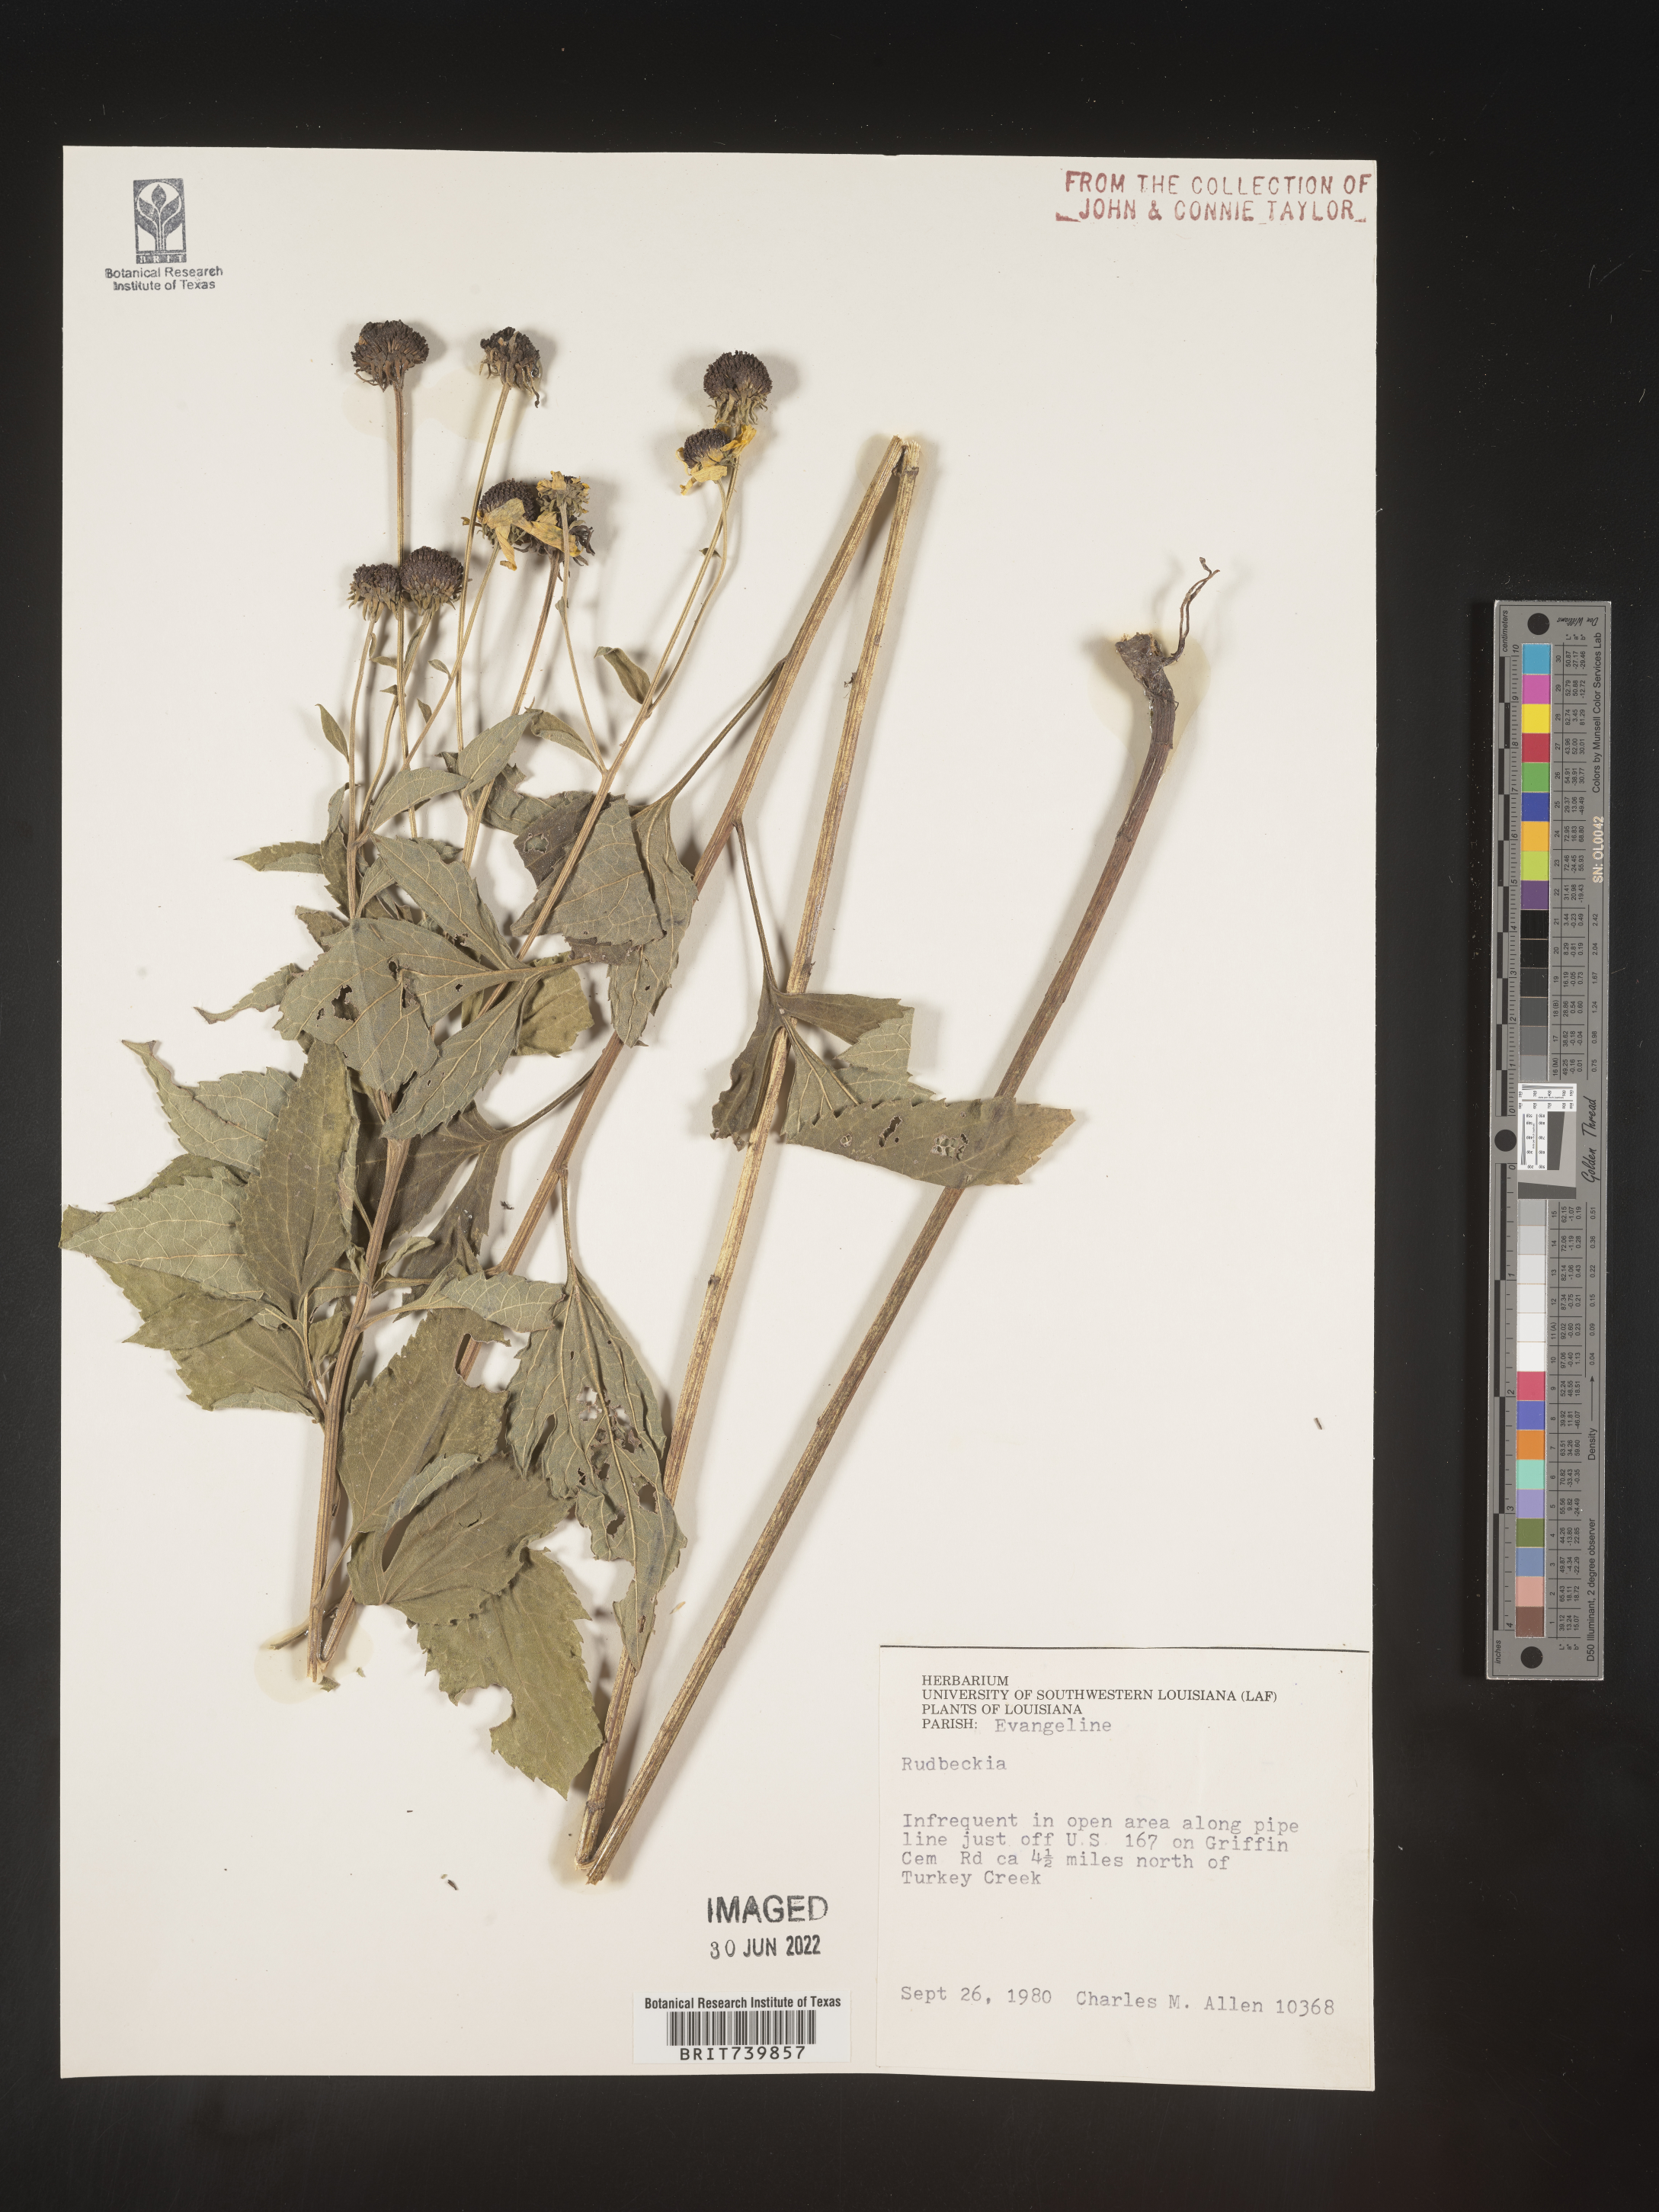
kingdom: Plantae
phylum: Tracheophyta
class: Magnoliopsida
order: Asterales
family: Asteraceae
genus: Rudbeckia
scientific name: Rudbeckia
